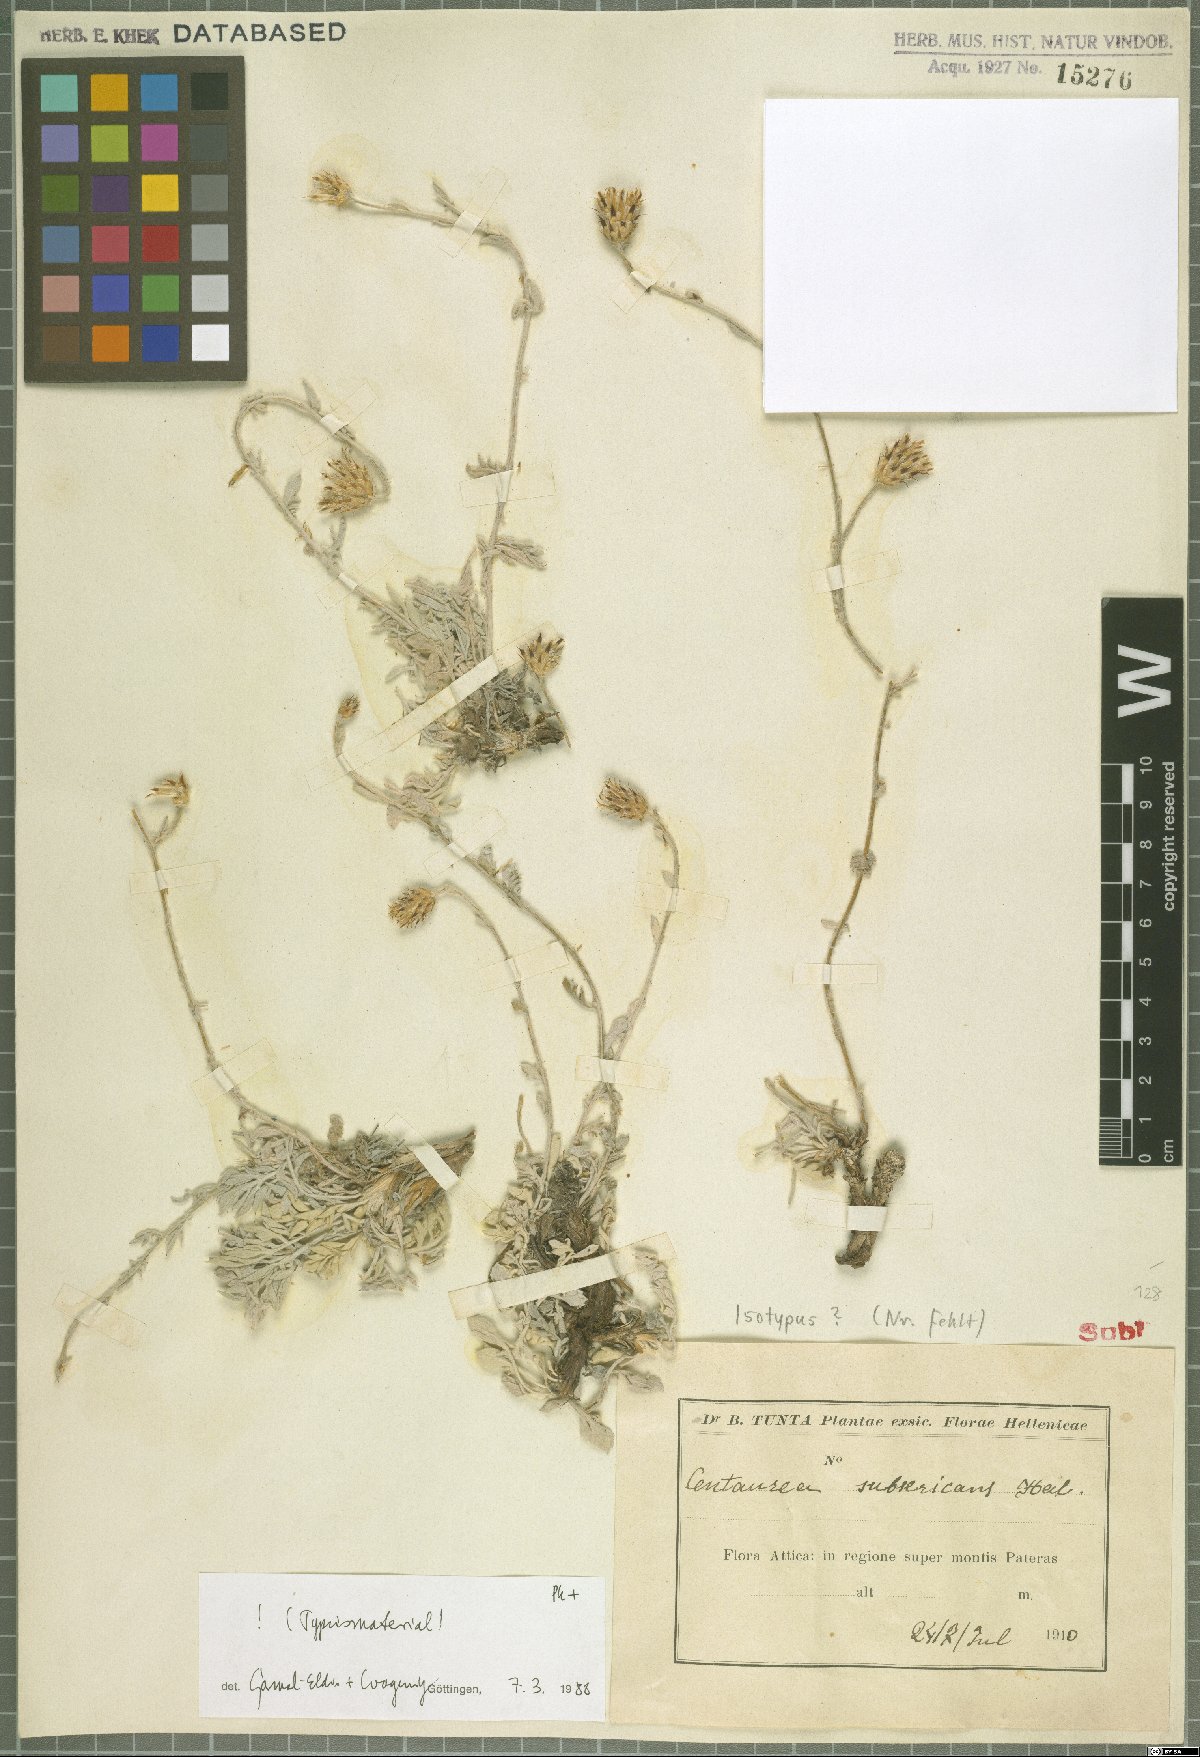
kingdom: Plantae
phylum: Tracheophyta
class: Magnoliopsida
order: Asterales
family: Asteraceae
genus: Centaurea
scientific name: Centaurea subsericans
